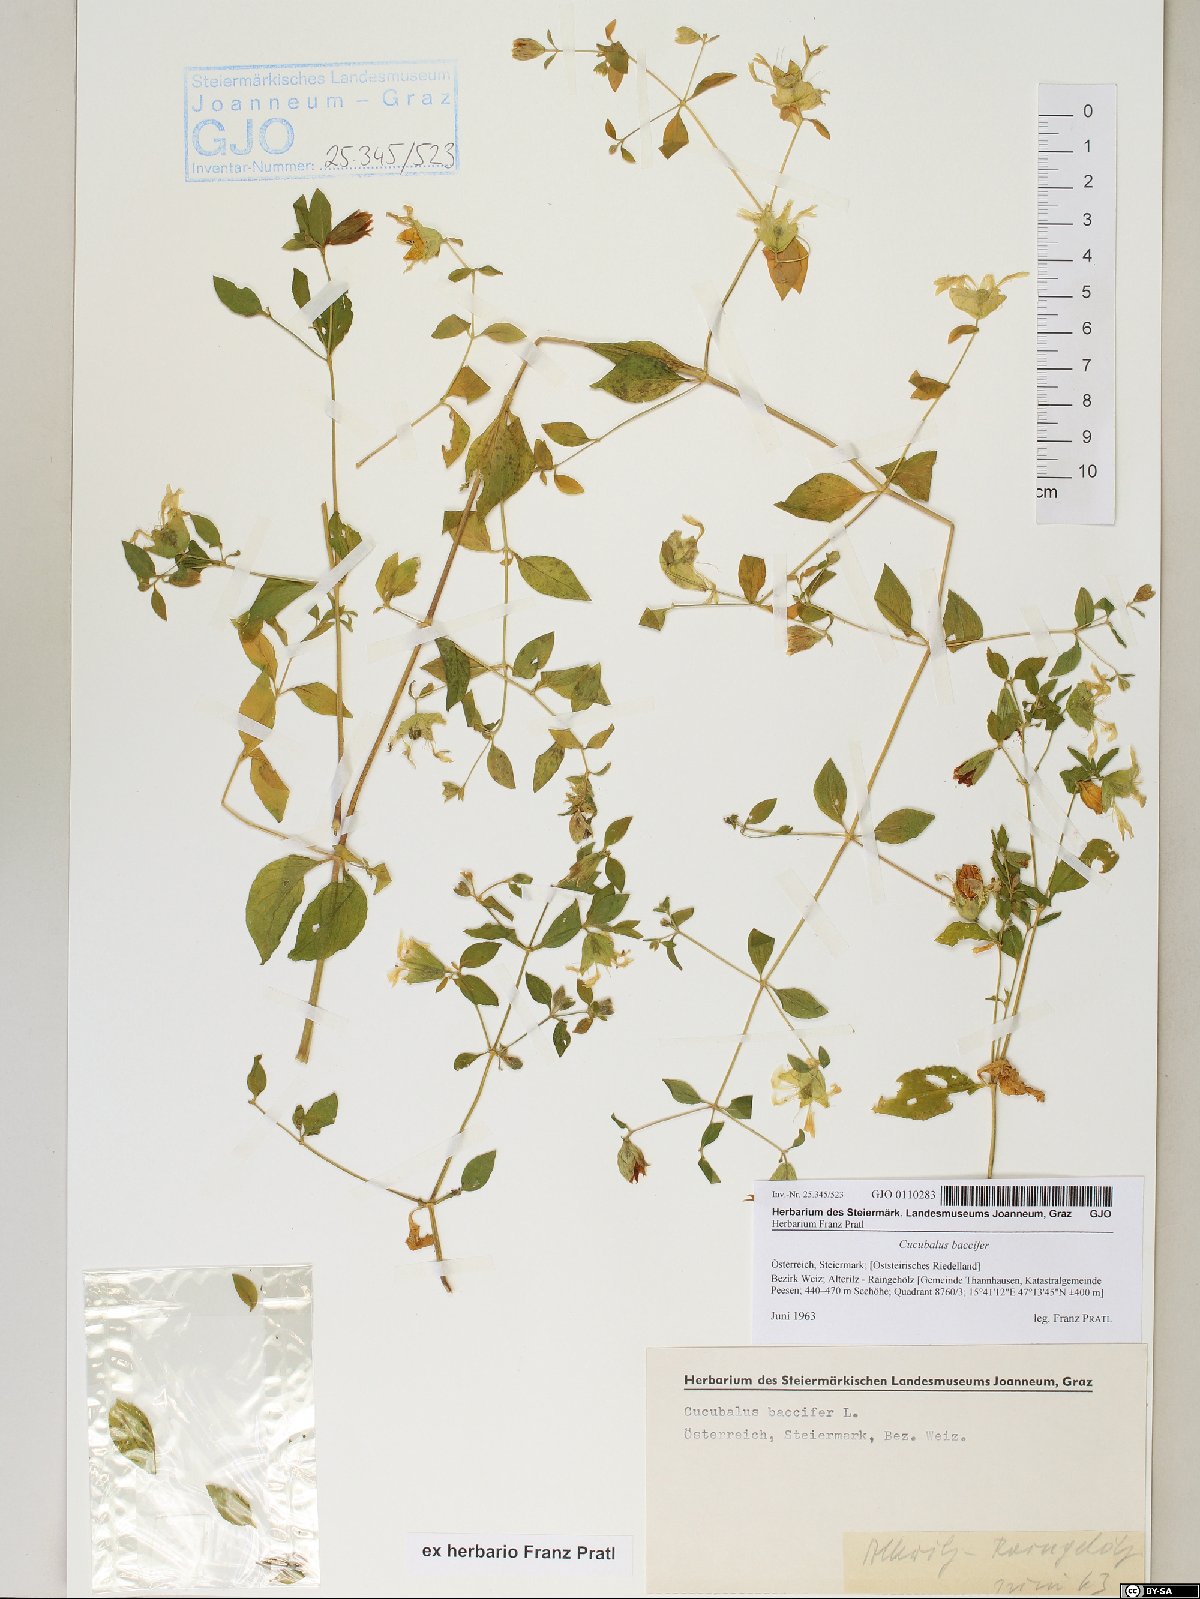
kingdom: Plantae
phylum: Tracheophyta
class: Magnoliopsida
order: Caryophyllales
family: Caryophyllaceae
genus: Silene
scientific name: Silene baccifera
